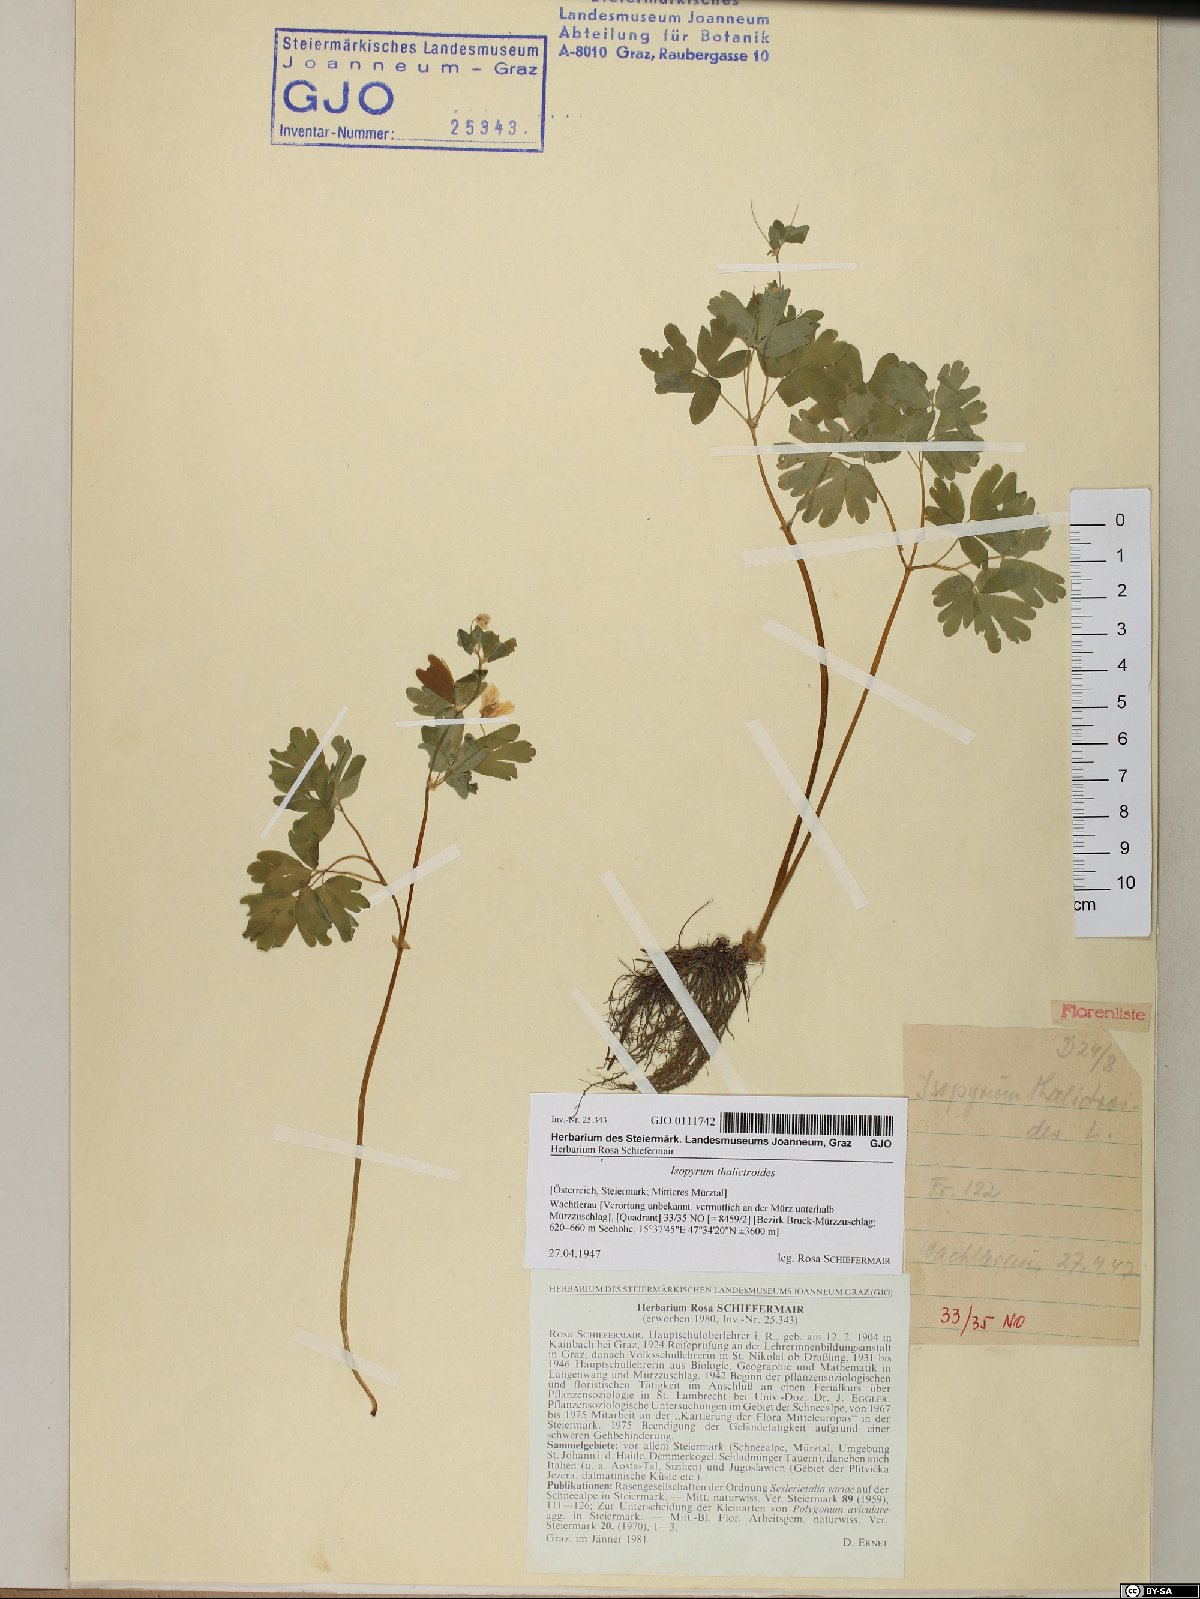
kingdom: Plantae
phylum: Tracheophyta
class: Magnoliopsida
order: Ranunculales
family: Ranunculaceae
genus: Isopyrum
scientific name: Isopyrum thalictroides
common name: Isopyrum
